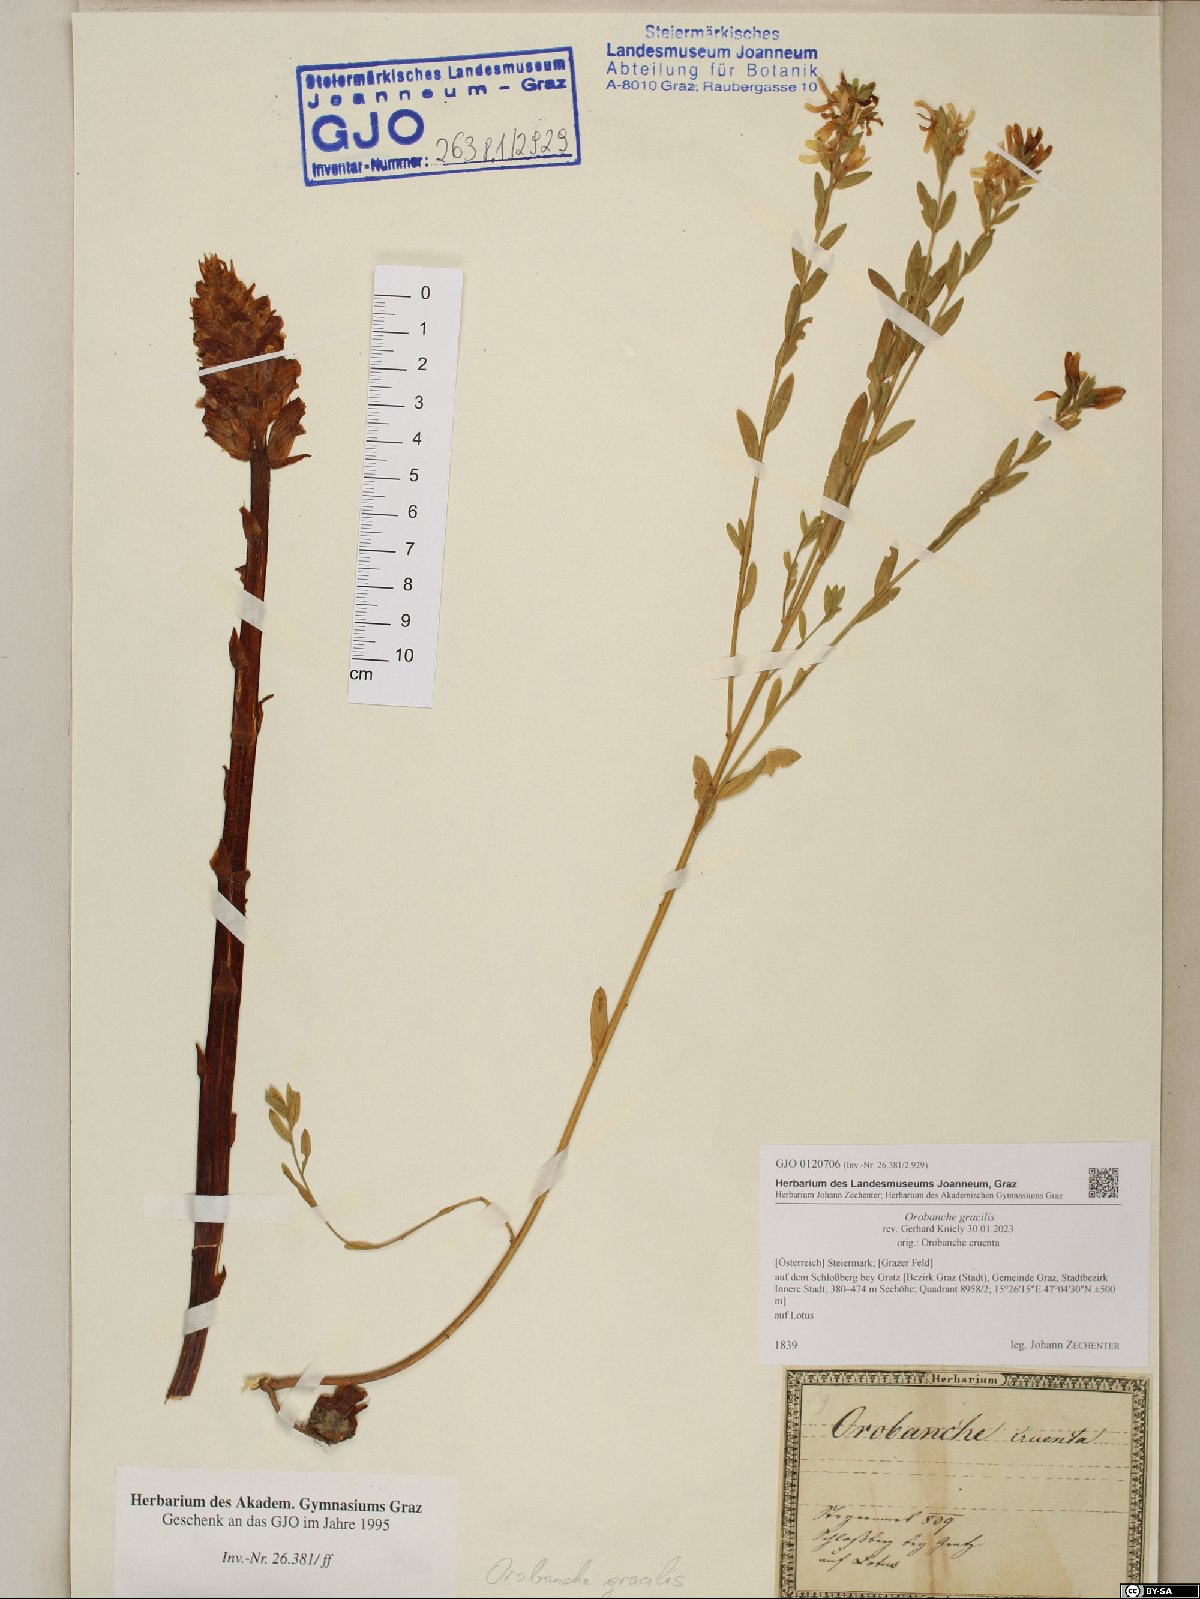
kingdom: Plantae
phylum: Tracheophyta
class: Magnoliopsida
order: Lamiales
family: Orobanchaceae
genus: Orobanche
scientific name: Orobanche gracilis
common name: Slender broomrape
